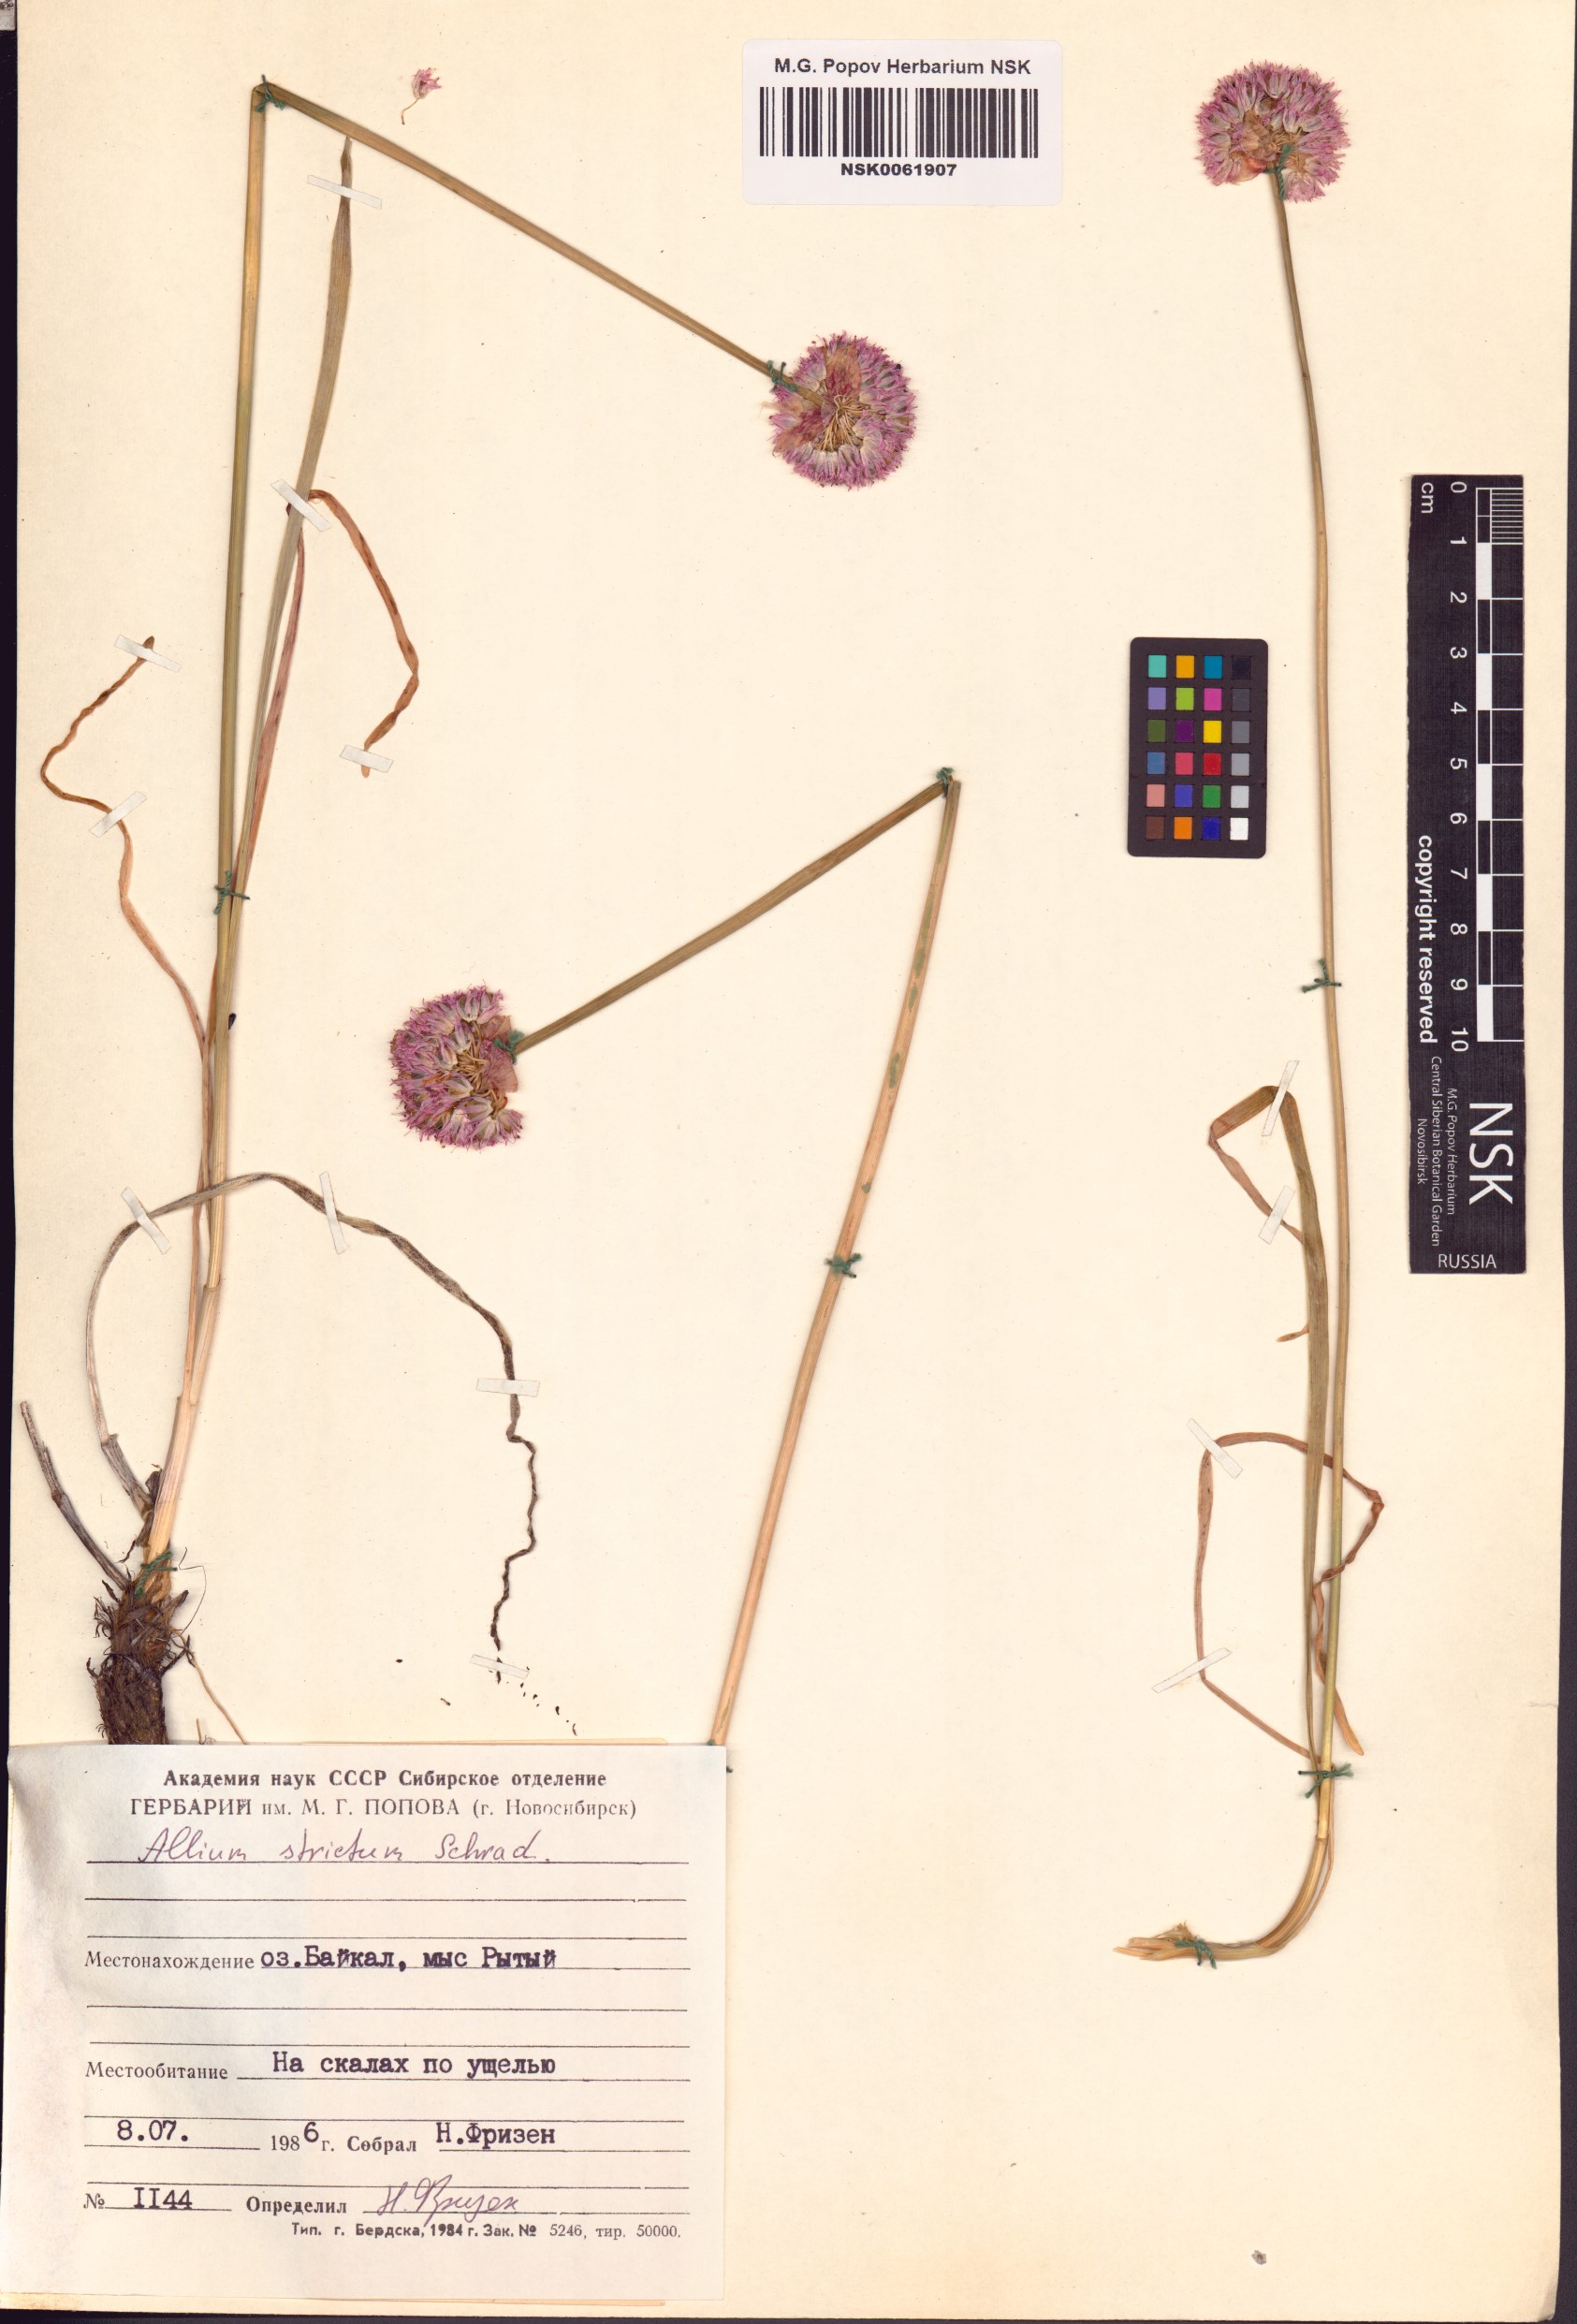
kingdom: Plantae
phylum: Tracheophyta
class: Liliopsida
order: Asparagales
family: Amaryllidaceae
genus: Allium
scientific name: Allium strictum
